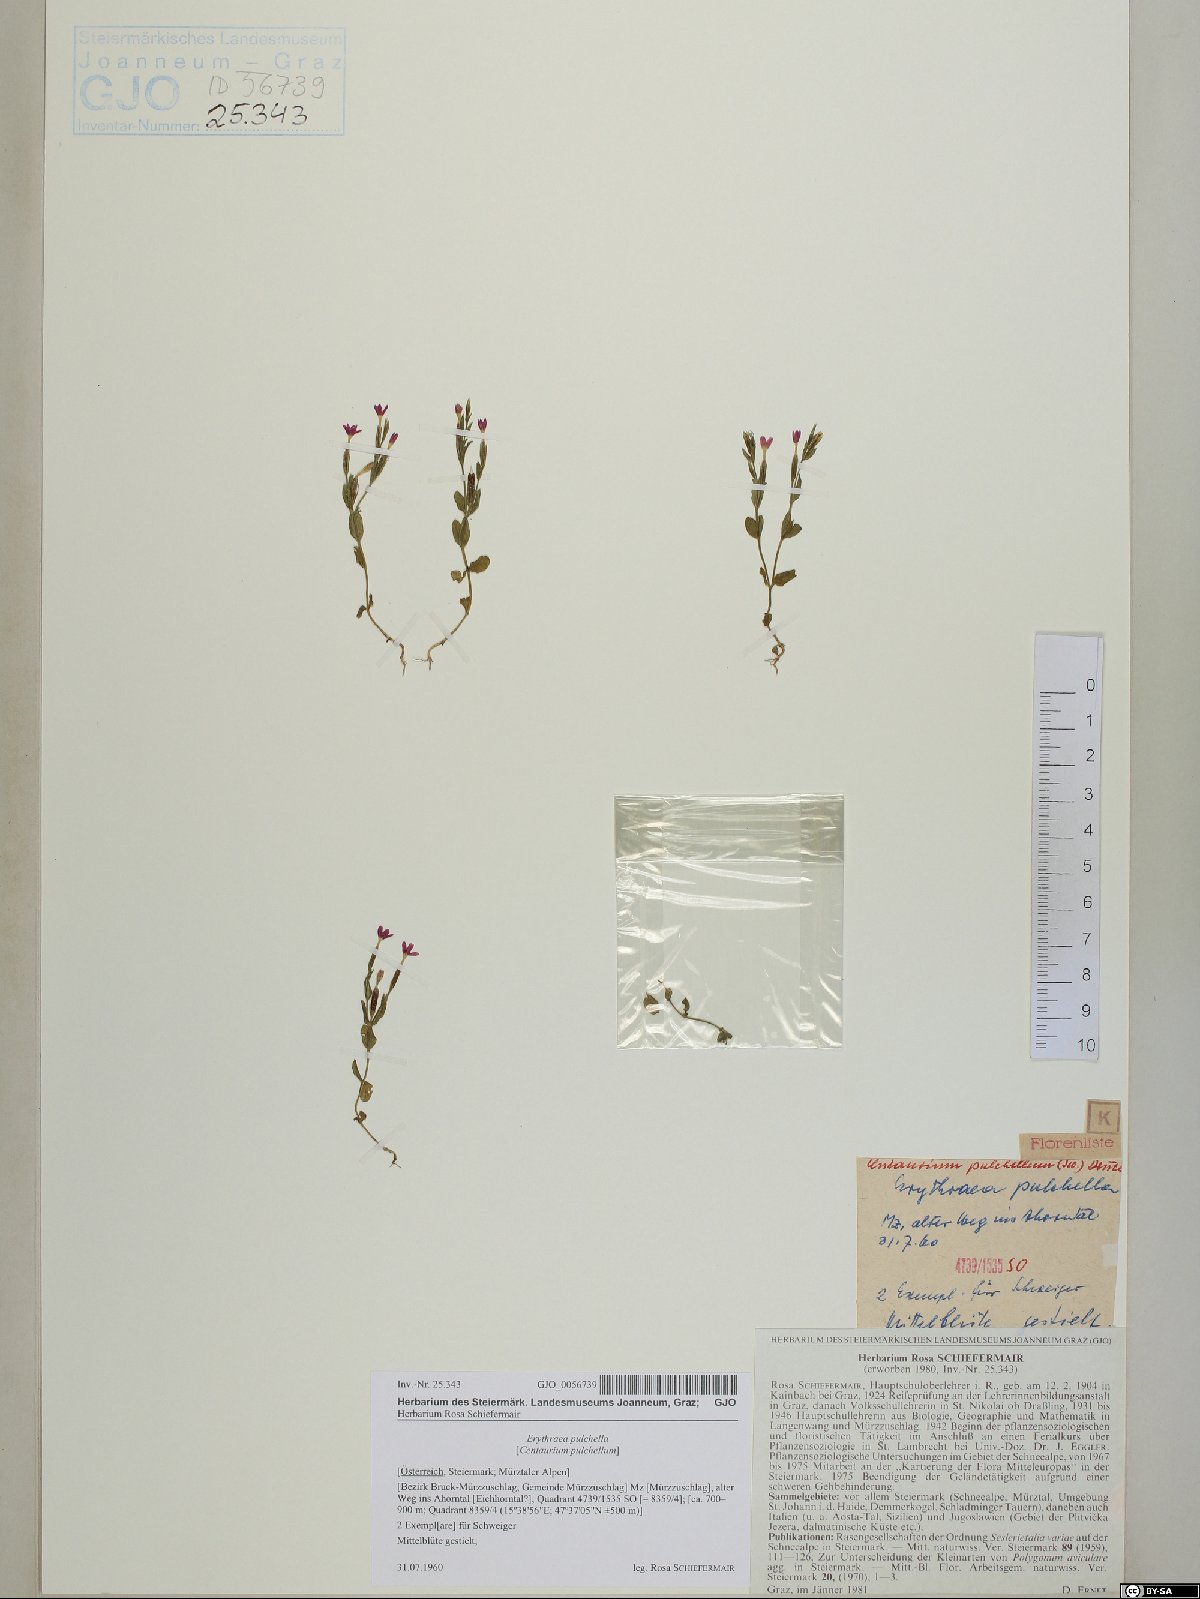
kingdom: Plantae
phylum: Tracheophyta
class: Magnoliopsida
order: Gentianales
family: Gentianaceae
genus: Centaurium
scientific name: Centaurium pulchellum
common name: Lesser centaury
